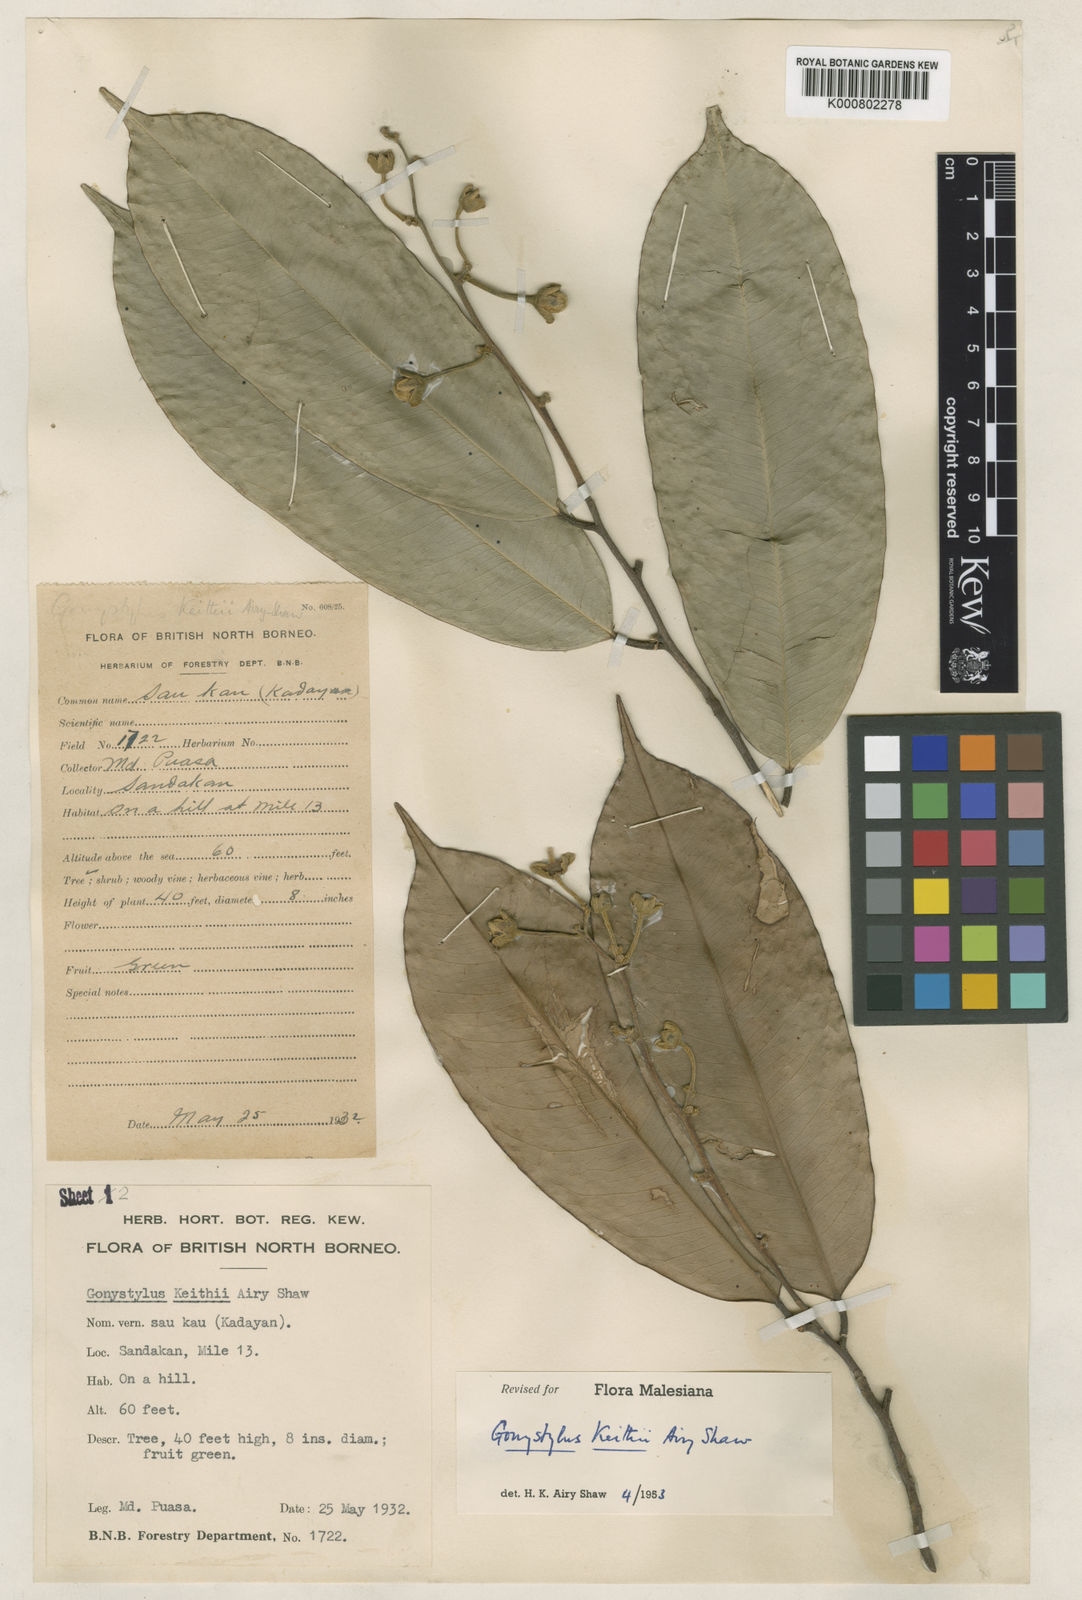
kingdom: Plantae
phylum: Tracheophyta
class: Magnoliopsida
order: Malvales
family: Thymelaeaceae
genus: Gonystylus
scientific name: Gonystylus keithii
